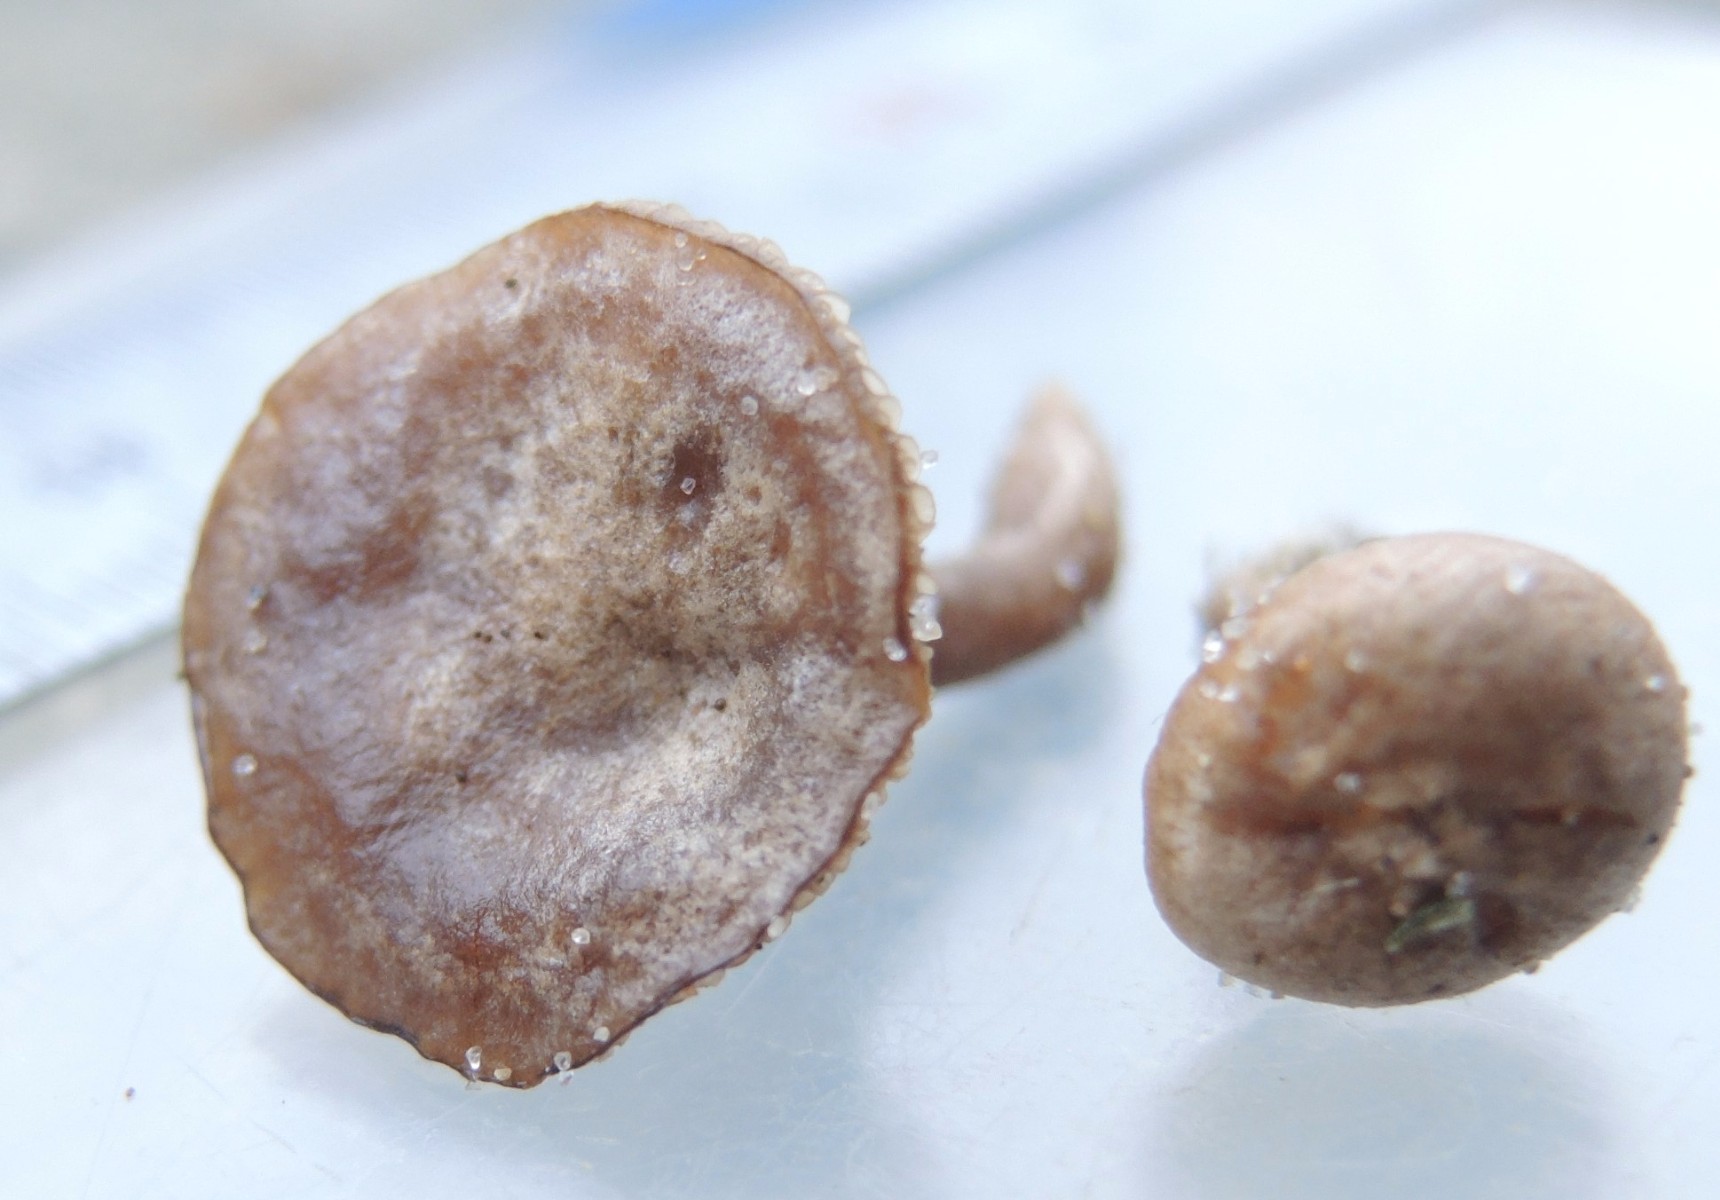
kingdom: Fungi
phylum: Basidiomycota
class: Agaricomycetes
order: Agaricales
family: Entolomataceae
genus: Rhodocybe
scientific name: Rhodocybe tugrulii
